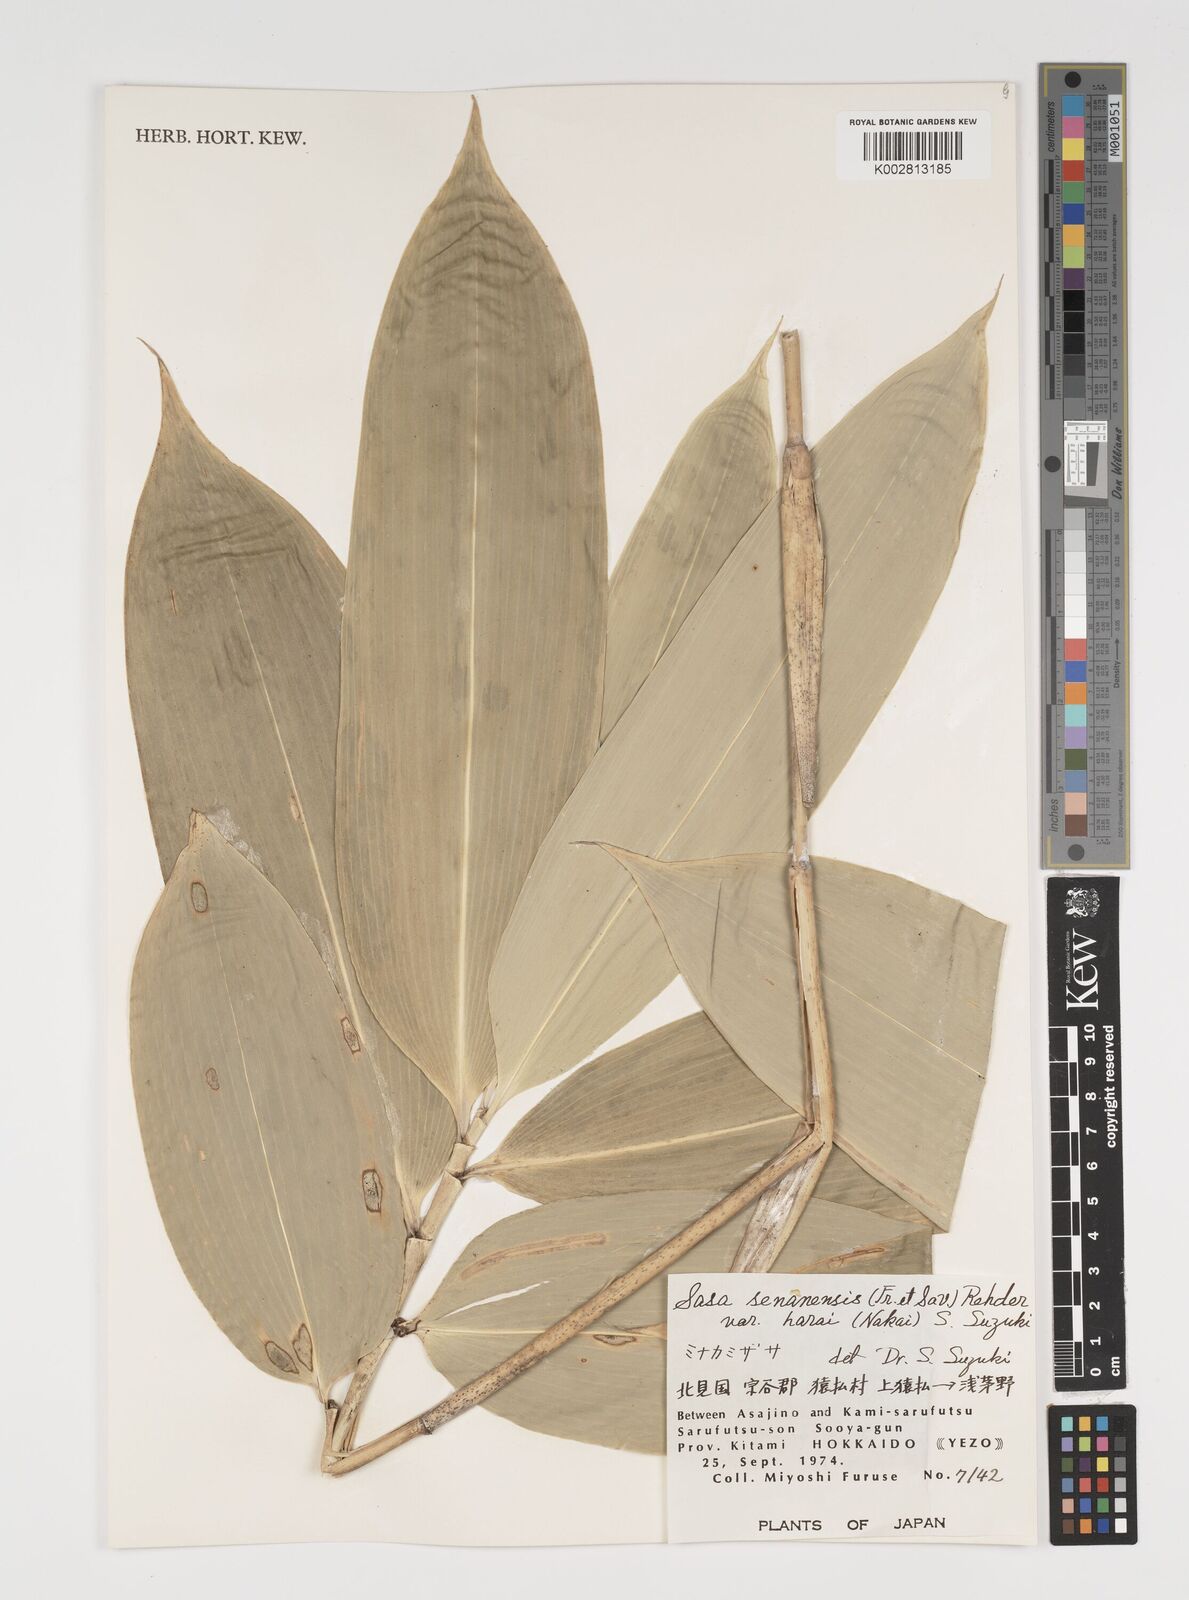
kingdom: Plantae
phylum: Tracheophyta
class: Liliopsida
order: Poales
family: Poaceae
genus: Sasa
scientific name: Sasa senanensis
